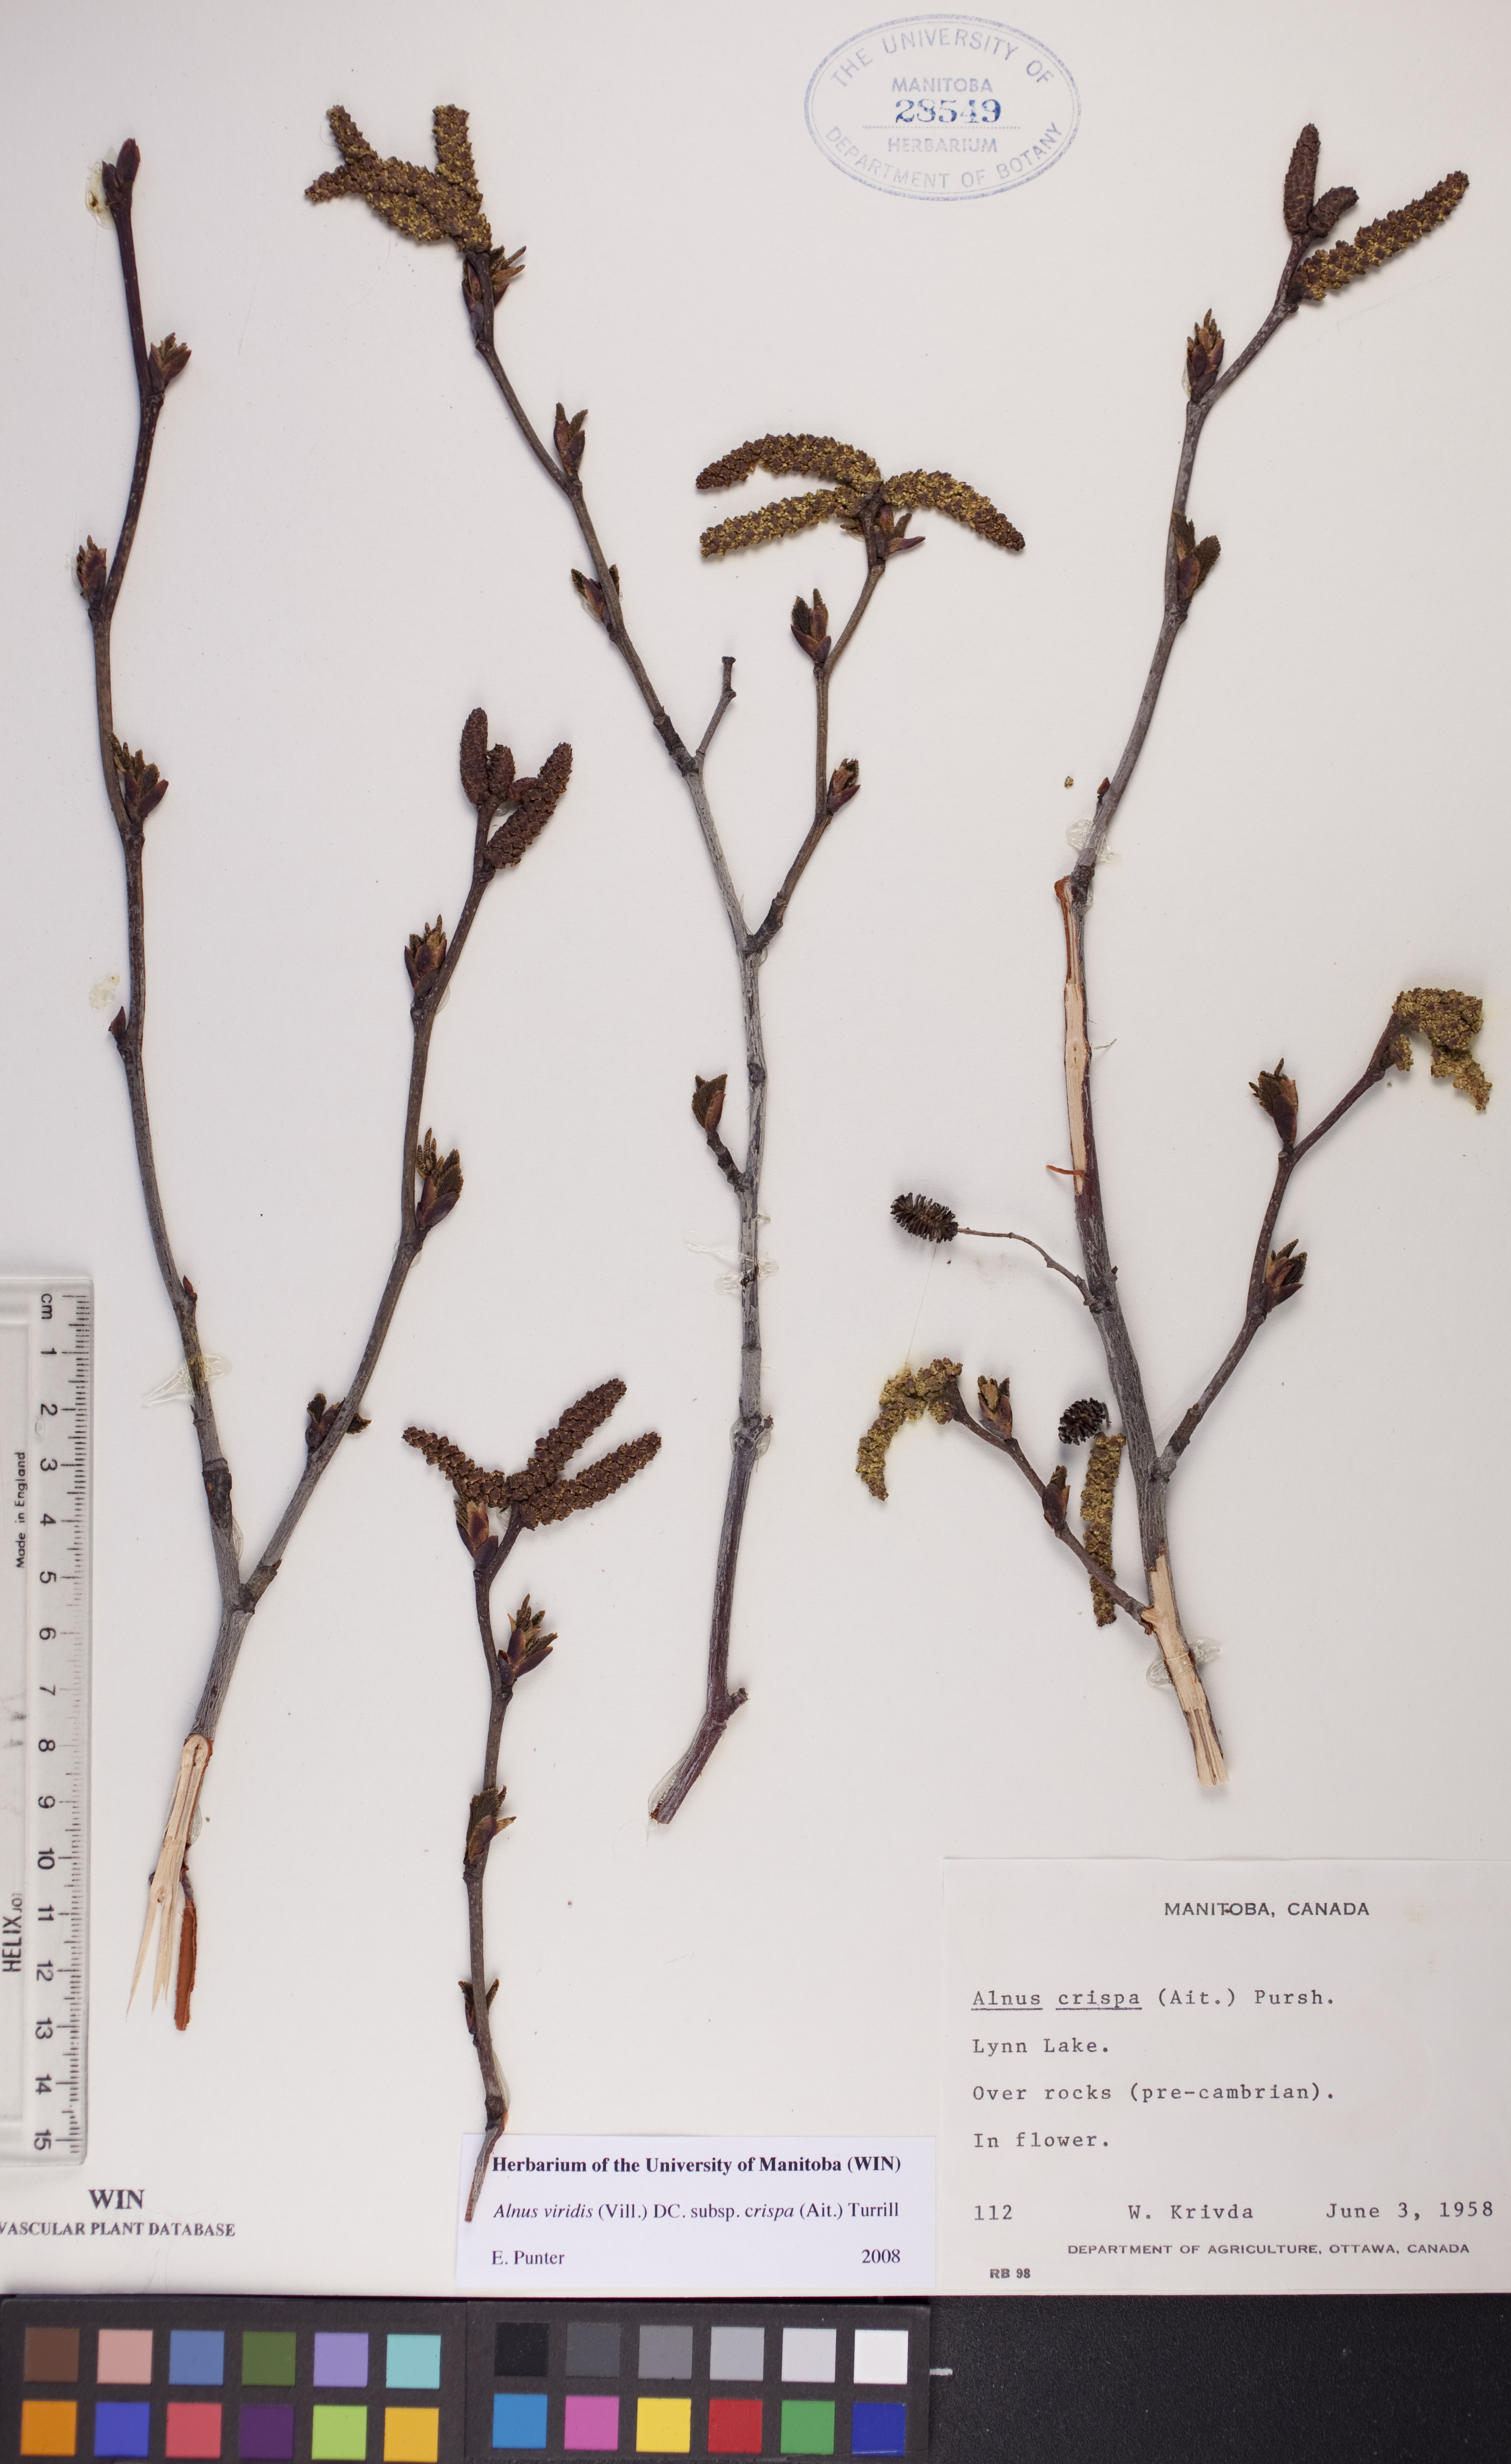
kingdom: Plantae
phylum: Tracheophyta
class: Magnoliopsida
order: Fagales
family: Betulaceae
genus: Alnus
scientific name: Alnus alnobetula
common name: Green alder
